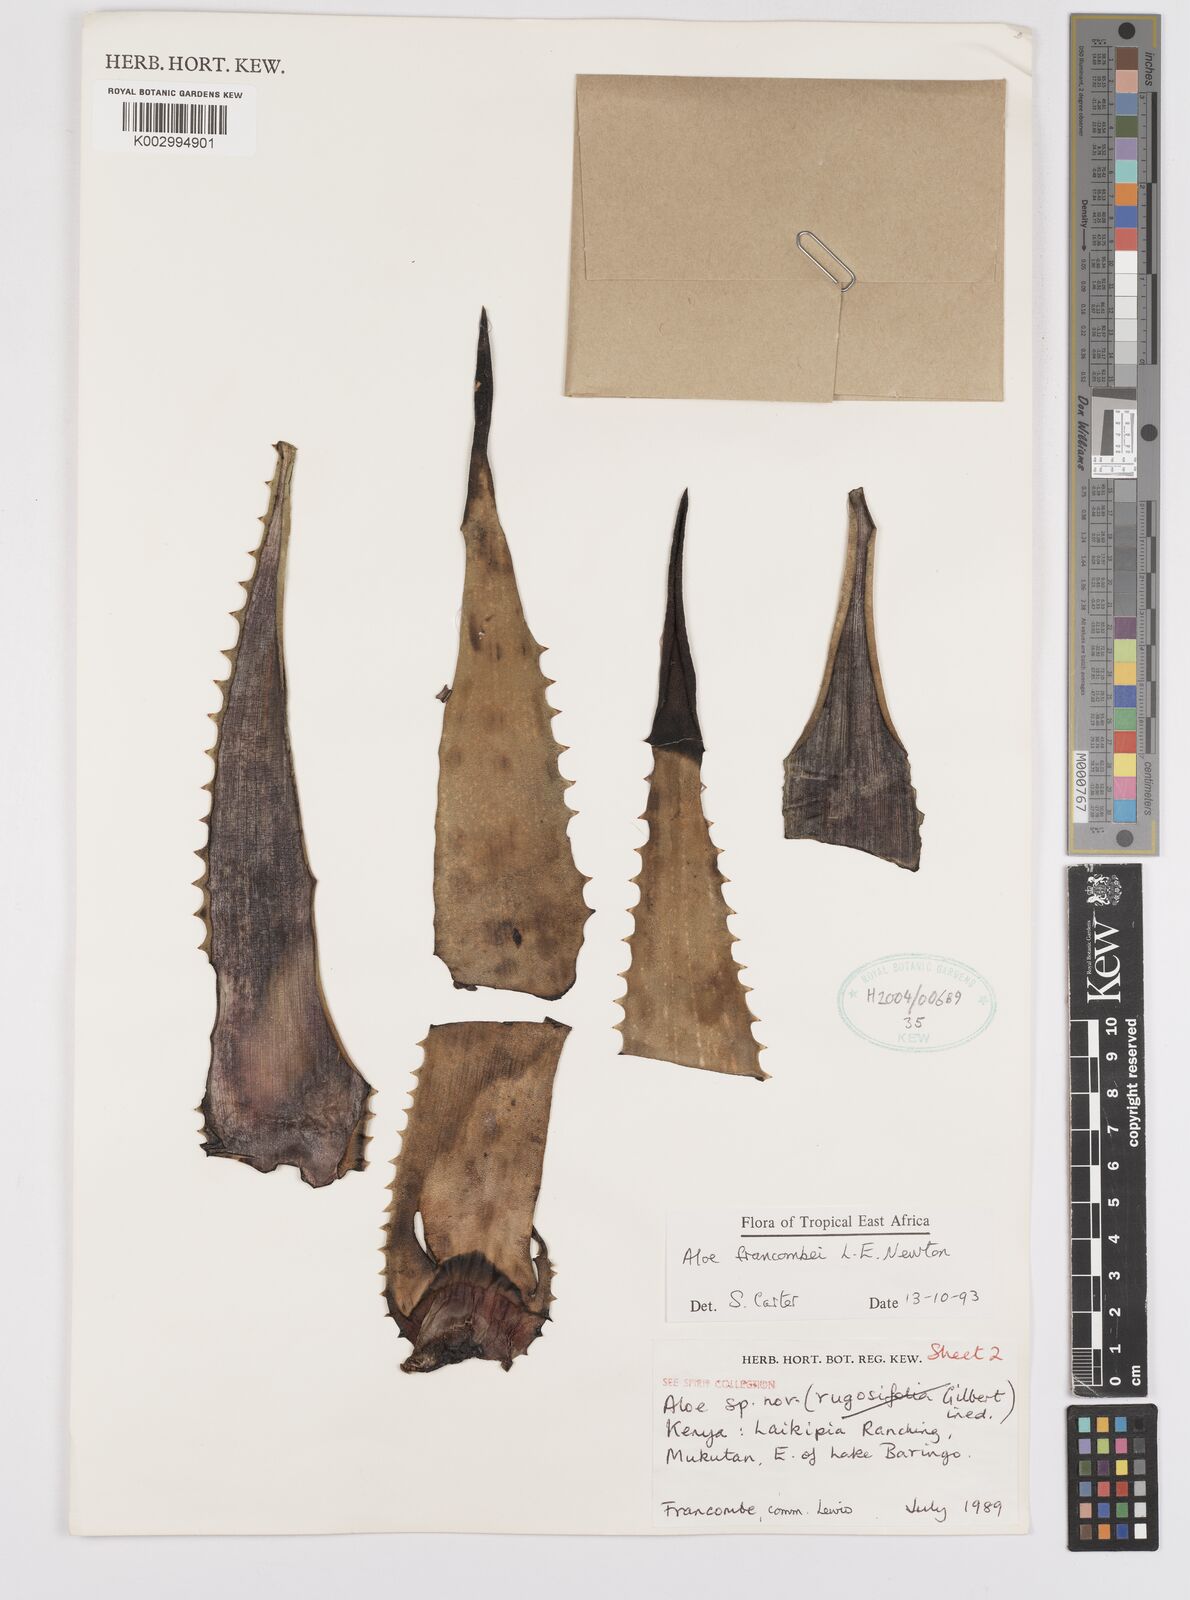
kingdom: Plantae
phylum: Tracheophyta
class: Liliopsida
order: Asparagales
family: Asphodelaceae
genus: Aloe
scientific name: Aloe francombei
